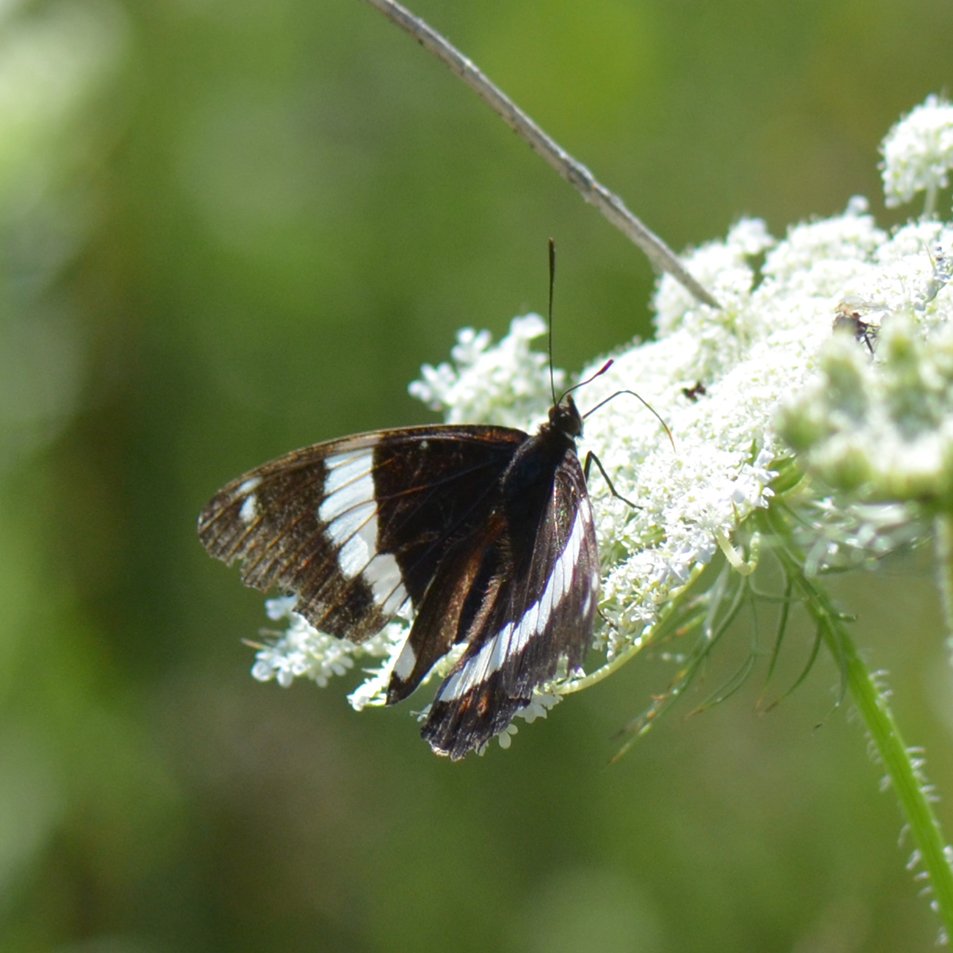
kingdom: Animalia
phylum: Arthropoda
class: Insecta
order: Lepidoptera
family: Nymphalidae
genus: Limenitis
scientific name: Limenitis arthemis
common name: Red-spotted Admiral
